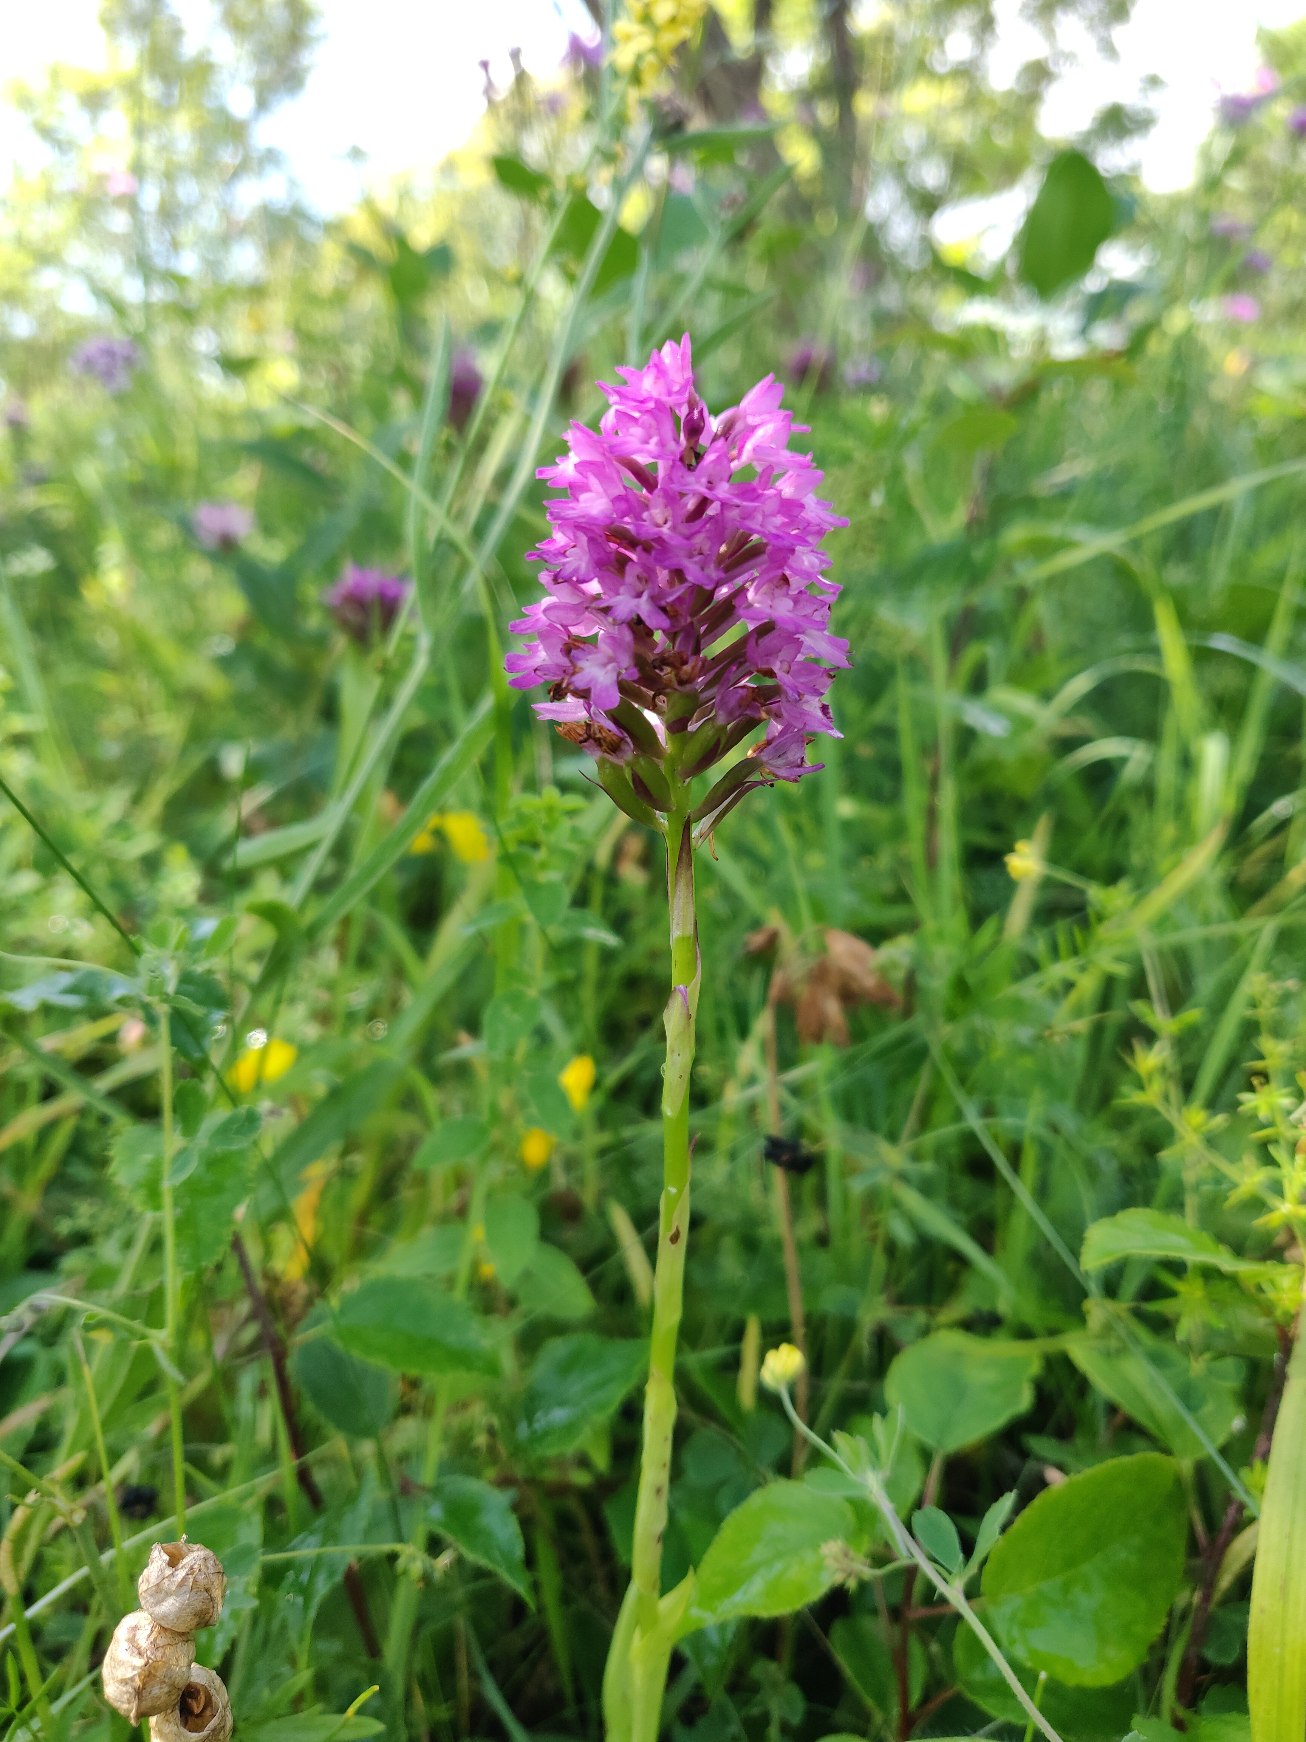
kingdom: Plantae
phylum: Tracheophyta
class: Liliopsida
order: Asparagales
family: Orchidaceae
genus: Anacamptis
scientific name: Anacamptis pyramidalis
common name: Horndrager
